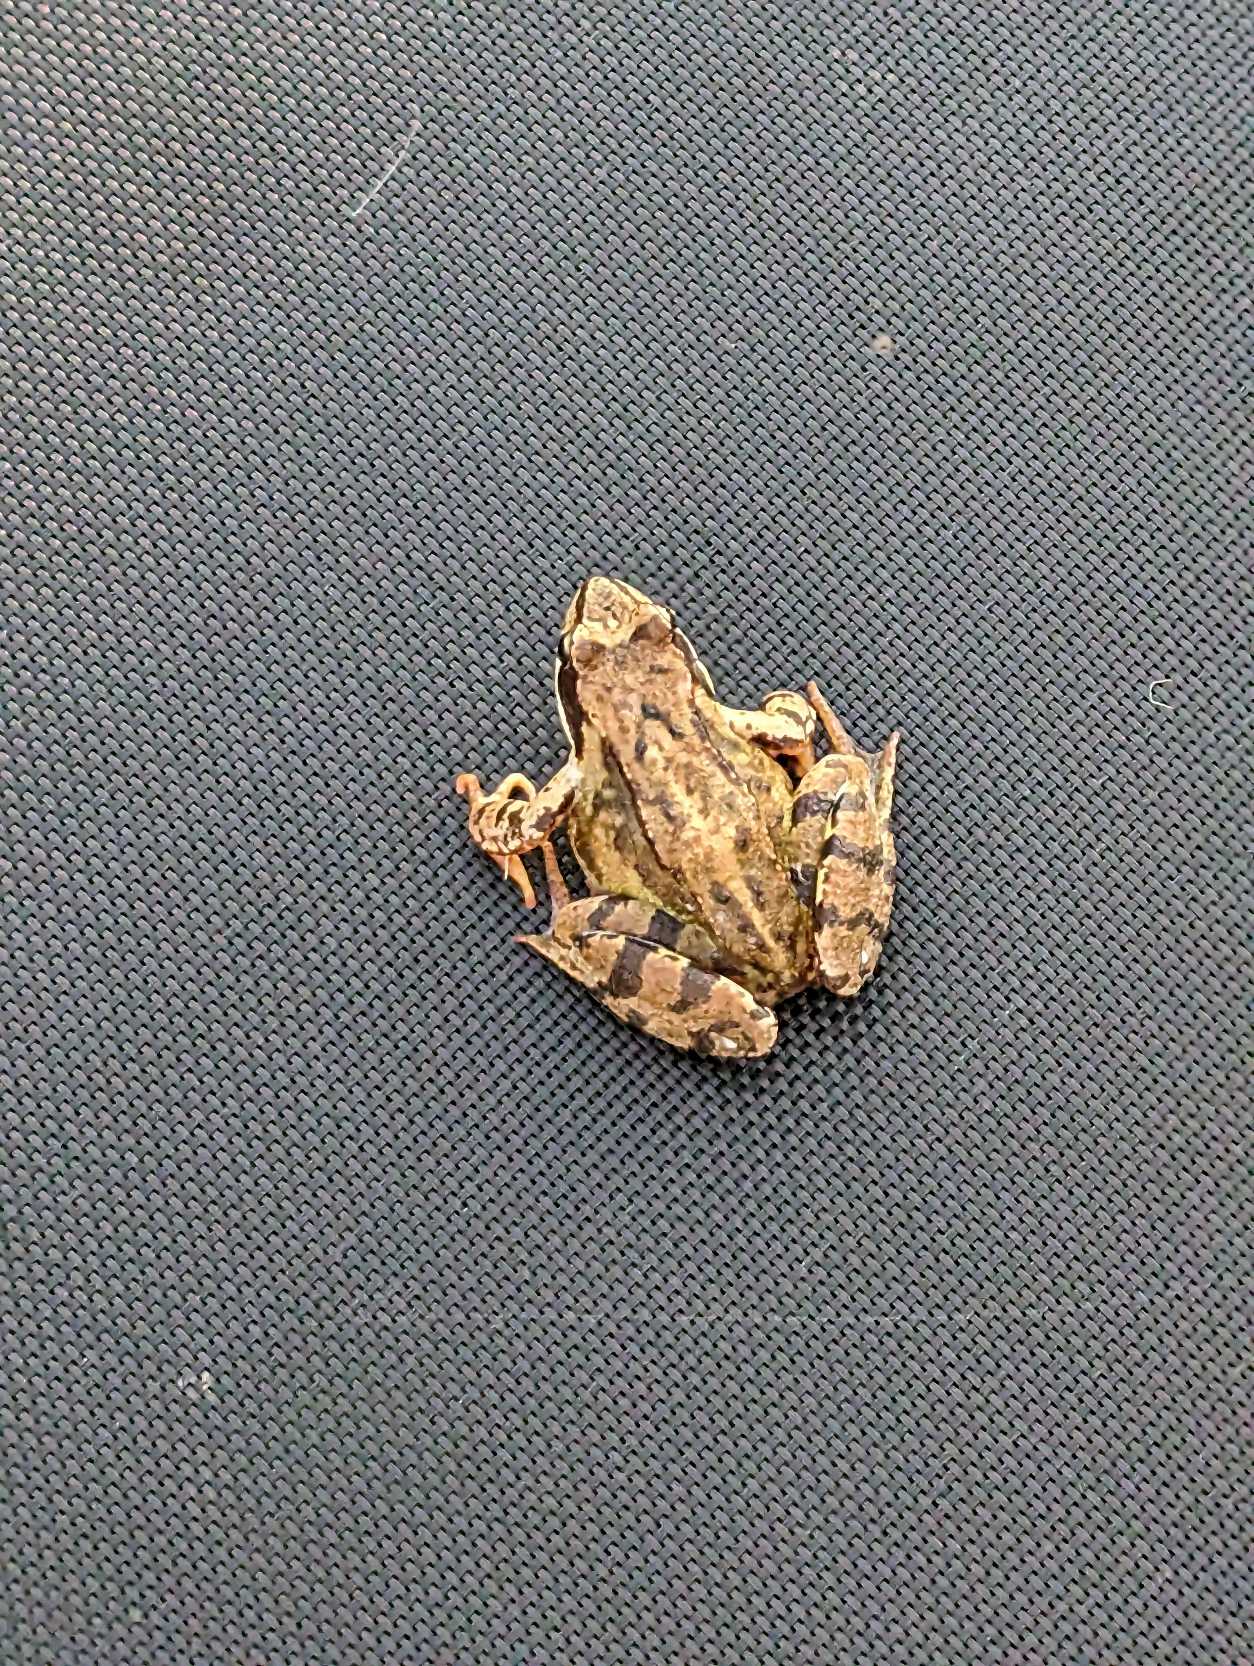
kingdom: Animalia
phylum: Chordata
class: Amphibia
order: Anura
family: Ranidae
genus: Rana
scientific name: Rana temporaria
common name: Butsnudet frø
